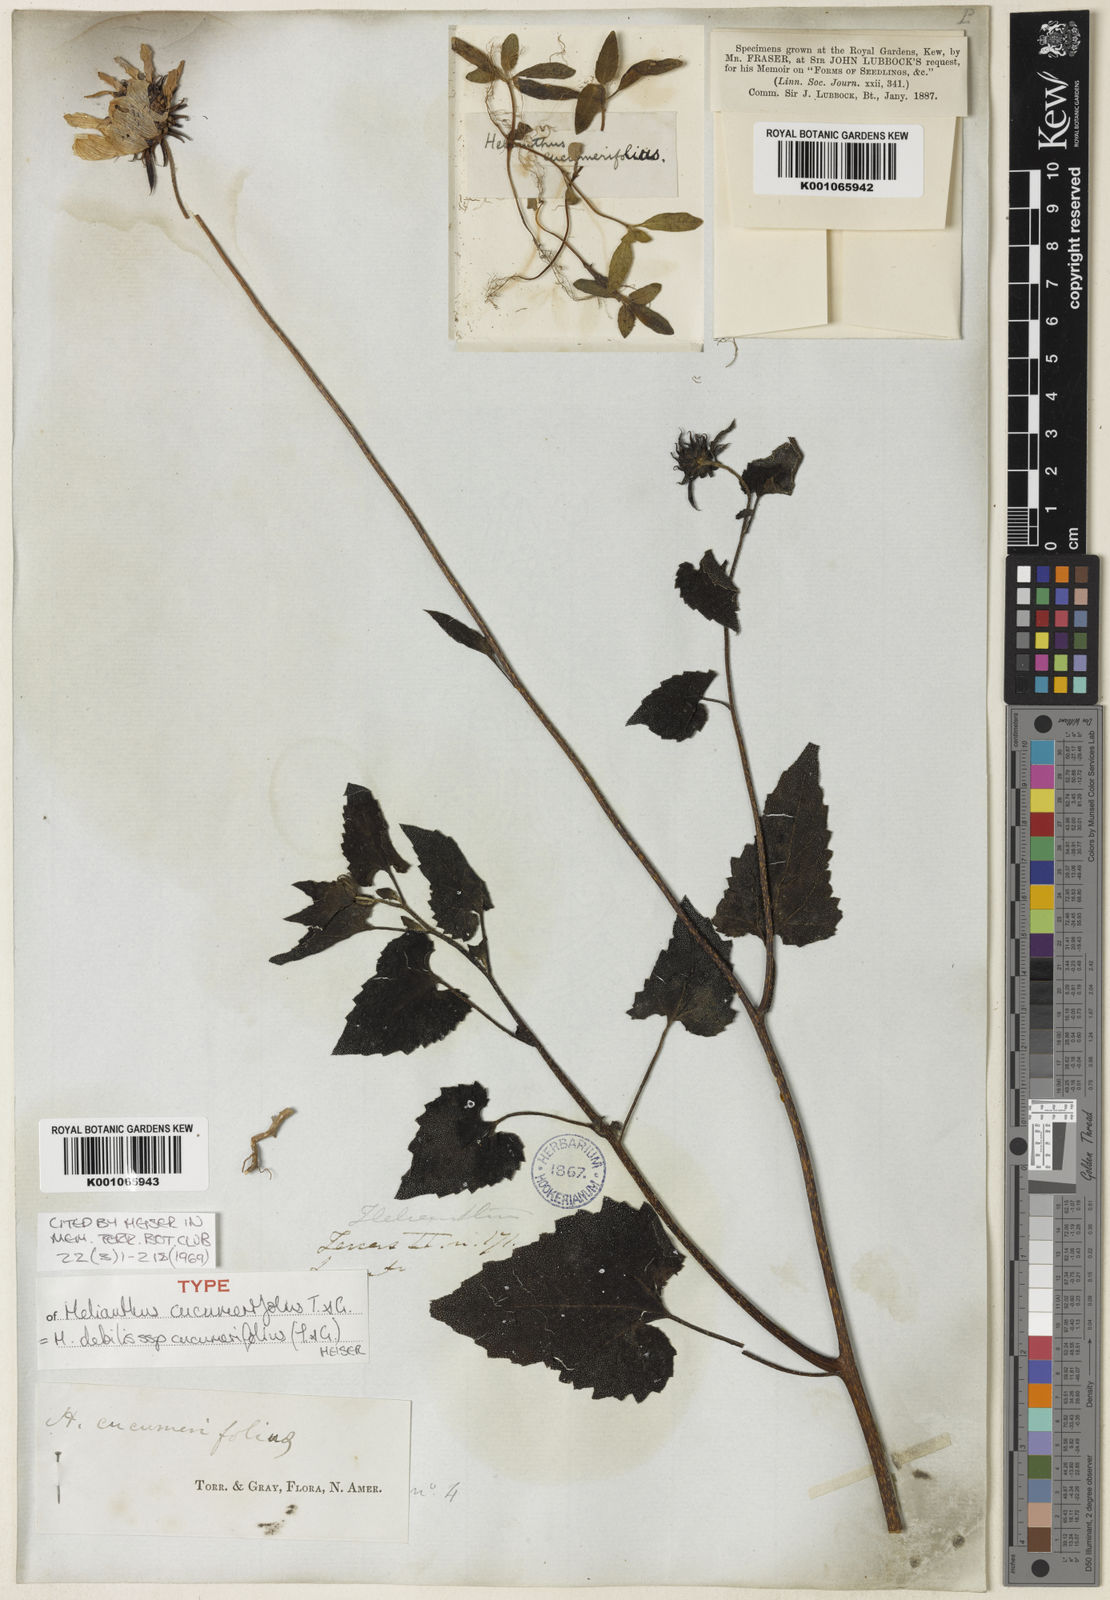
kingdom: Plantae
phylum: Tracheophyta
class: Magnoliopsida
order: Asterales
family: Asteraceae
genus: Helianthus
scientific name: Helianthus debilis
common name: Weak sunflower
